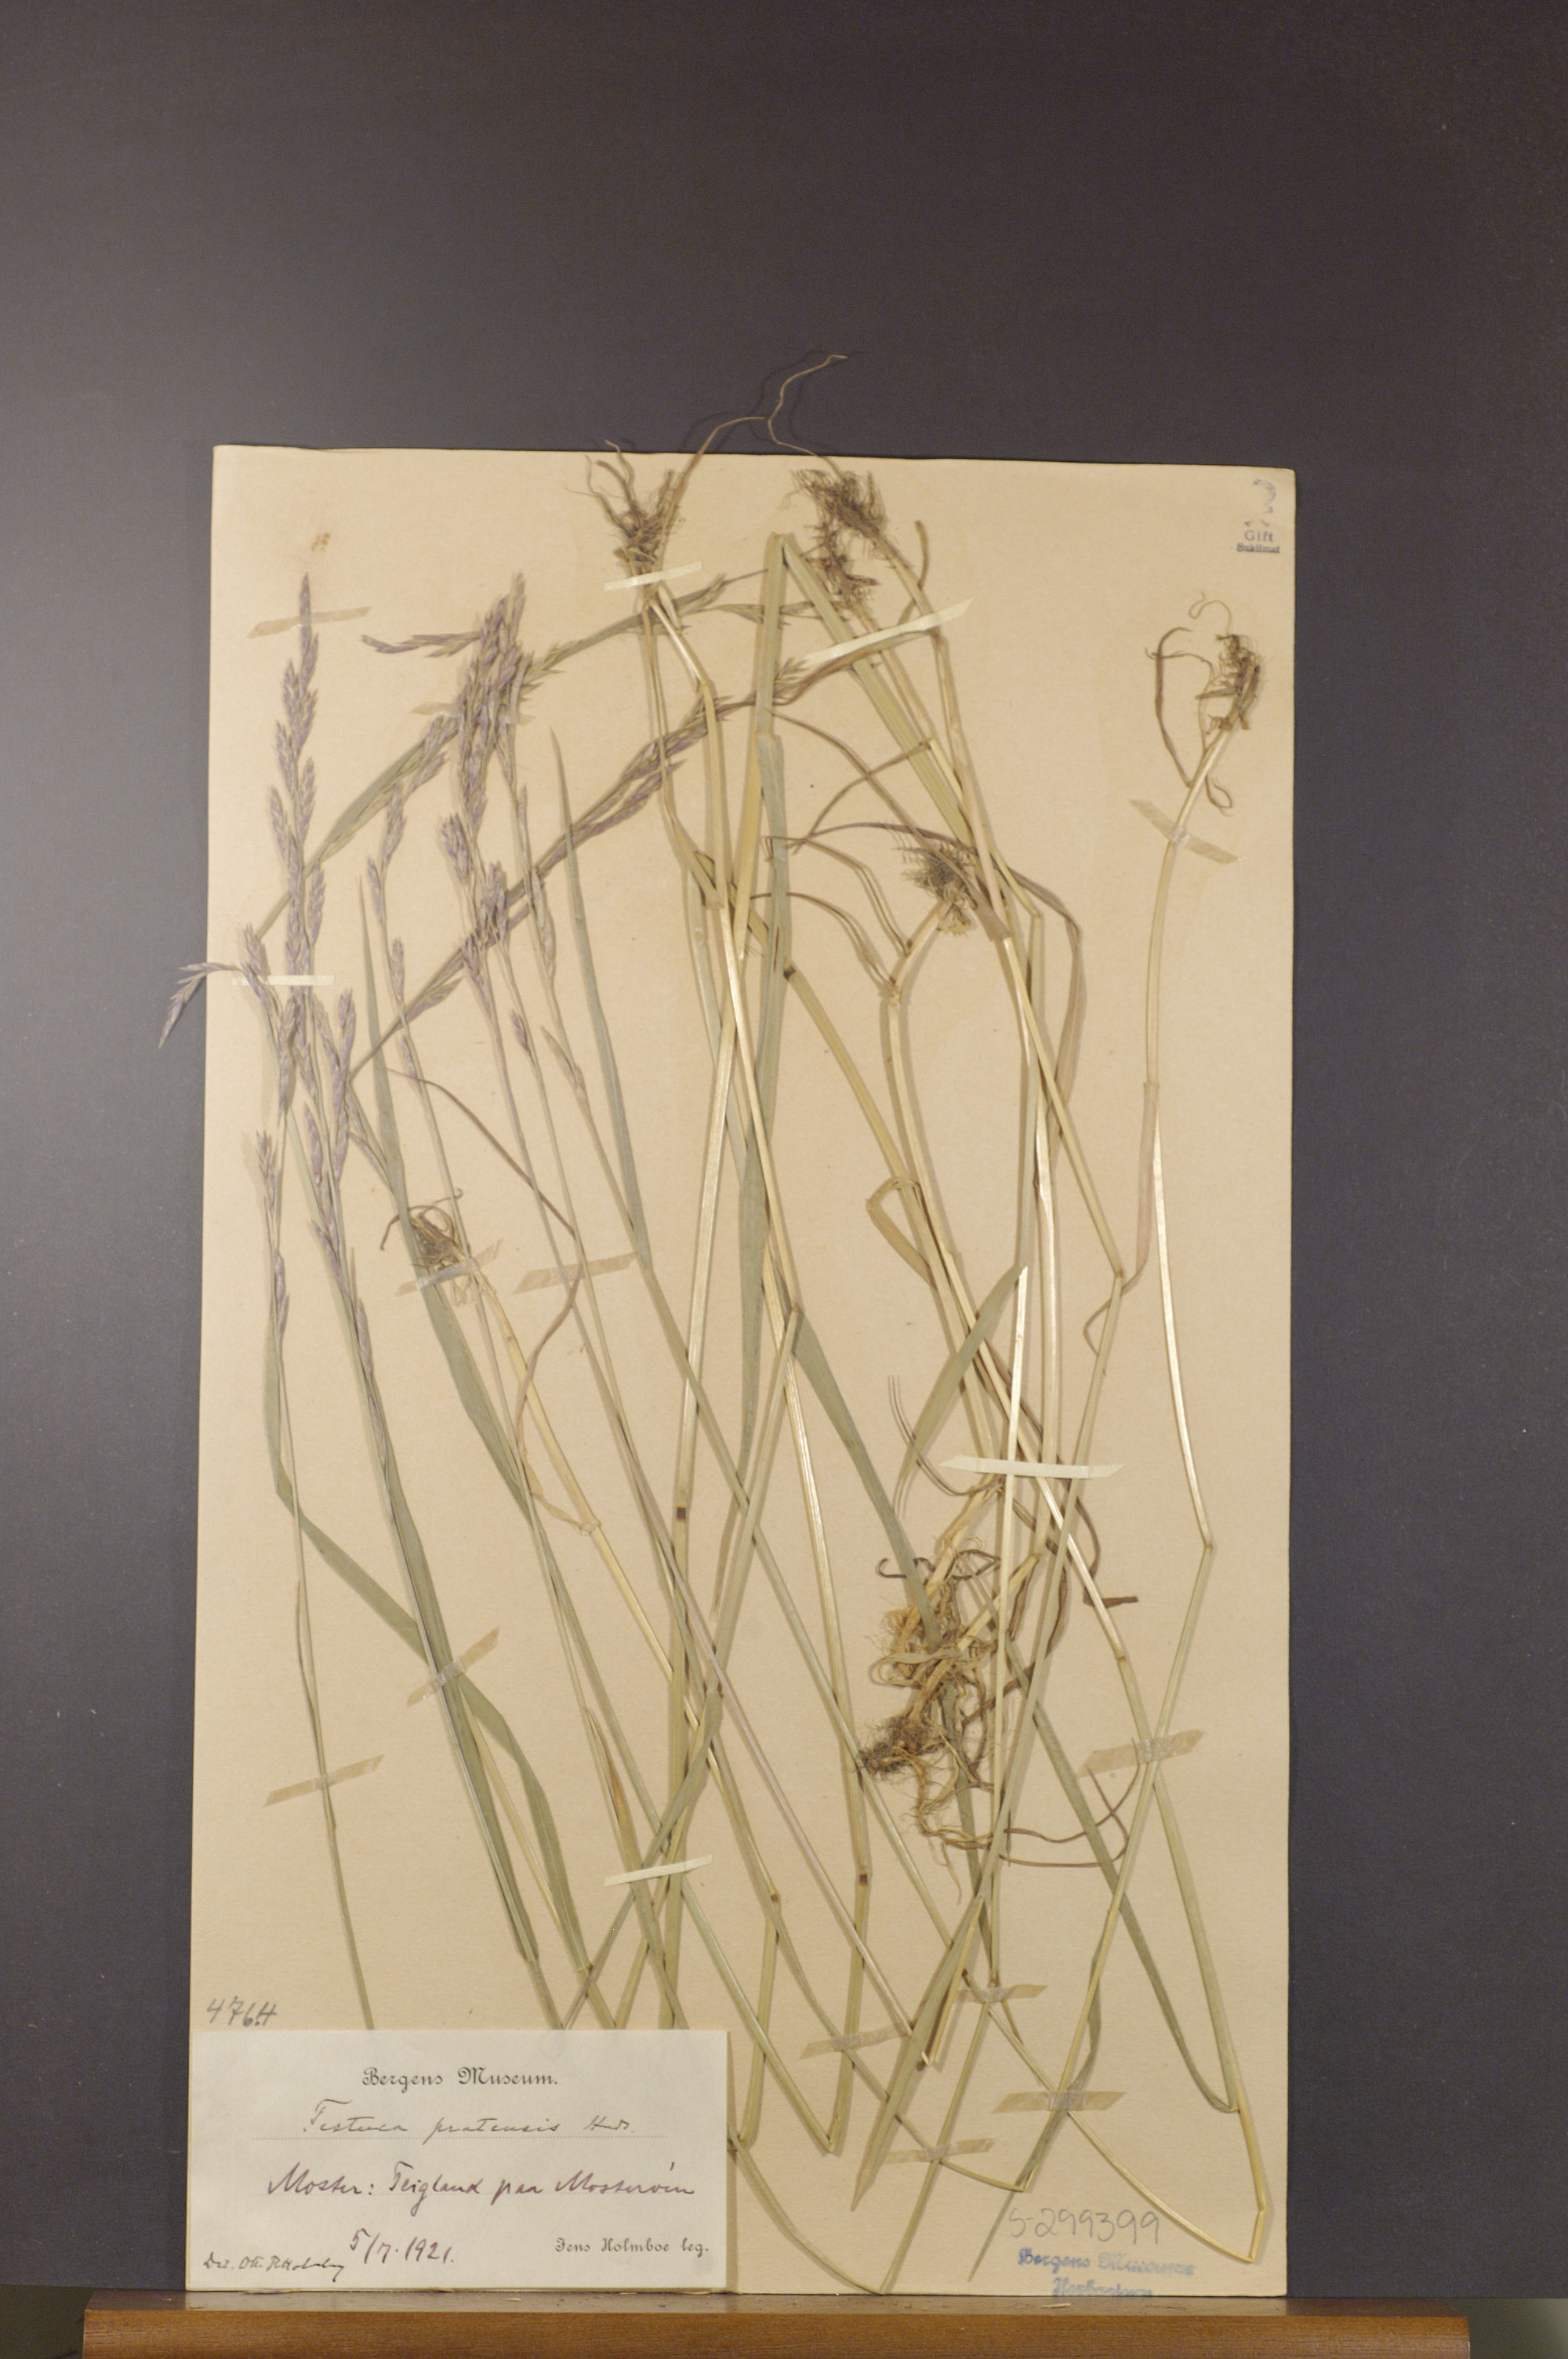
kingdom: Plantae
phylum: Tracheophyta
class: Liliopsida
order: Poales
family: Poaceae
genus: Lolium
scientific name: Lolium pratense
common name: Dover grass
